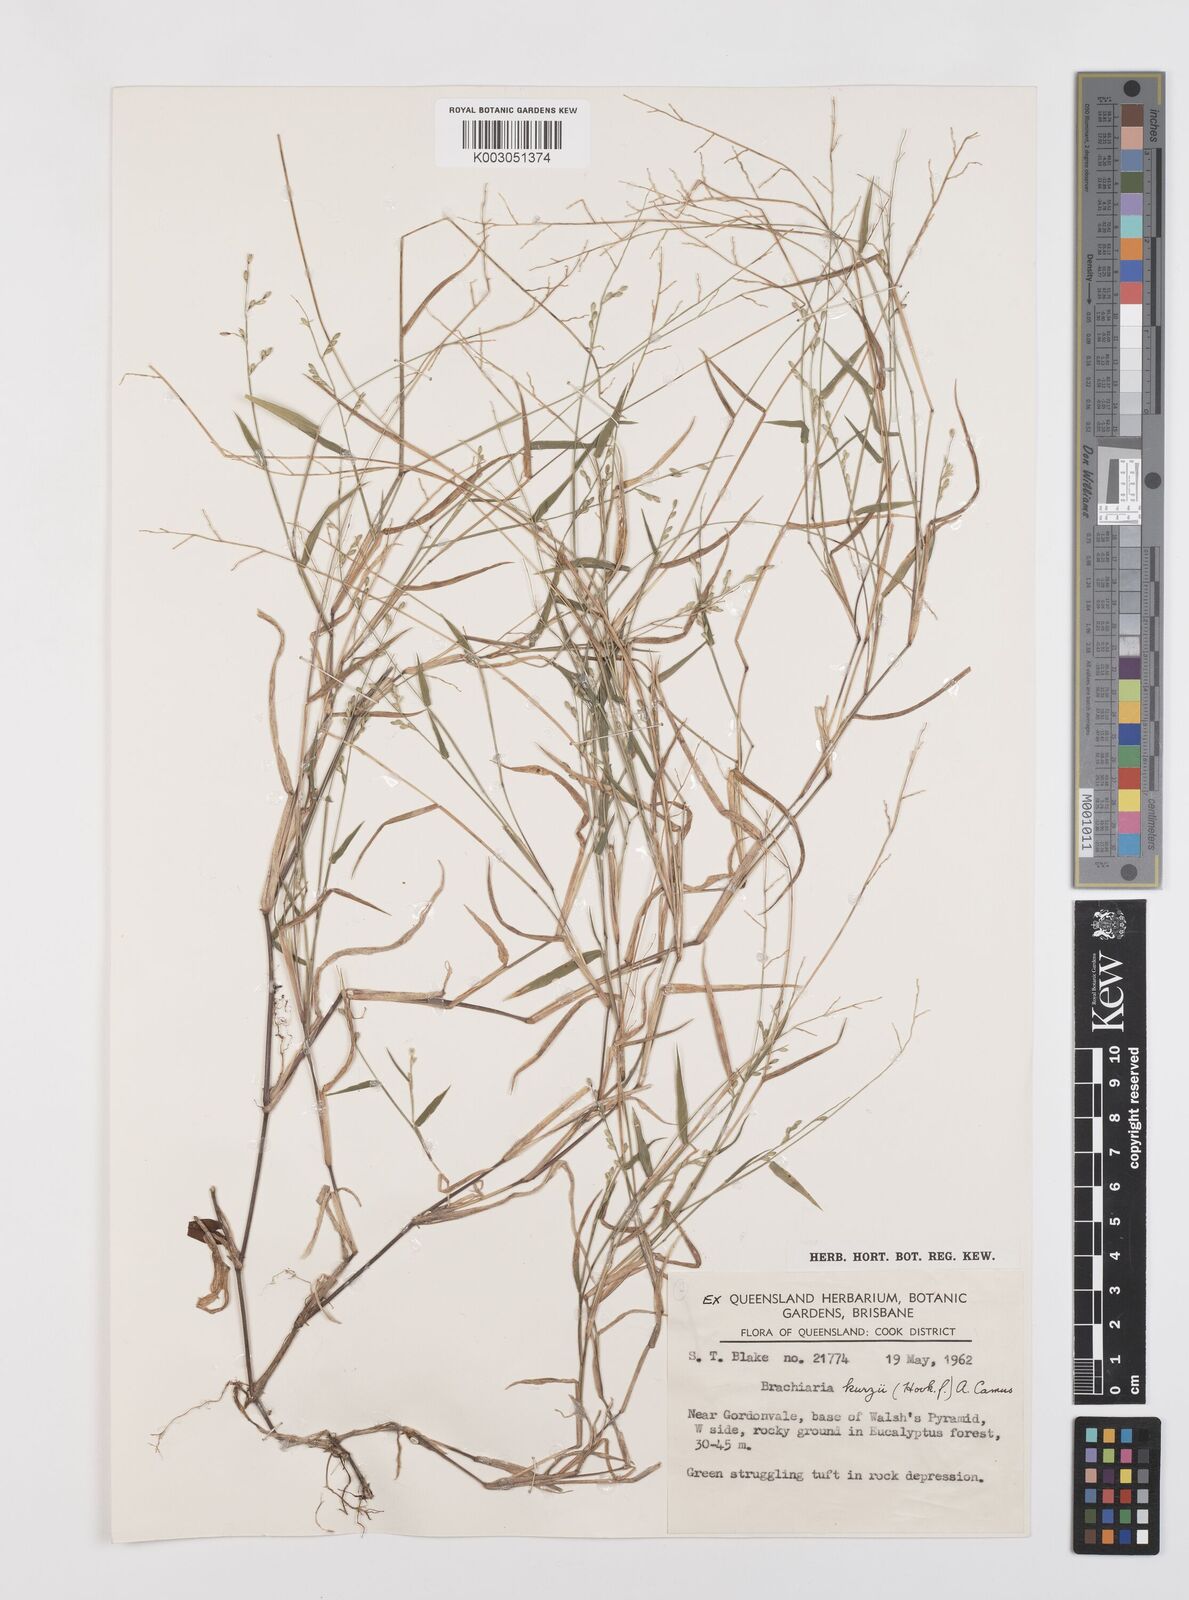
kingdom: Plantae
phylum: Tracheophyta
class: Liliopsida
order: Poales
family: Poaceae
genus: Brachiaria
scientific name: Brachiaria
